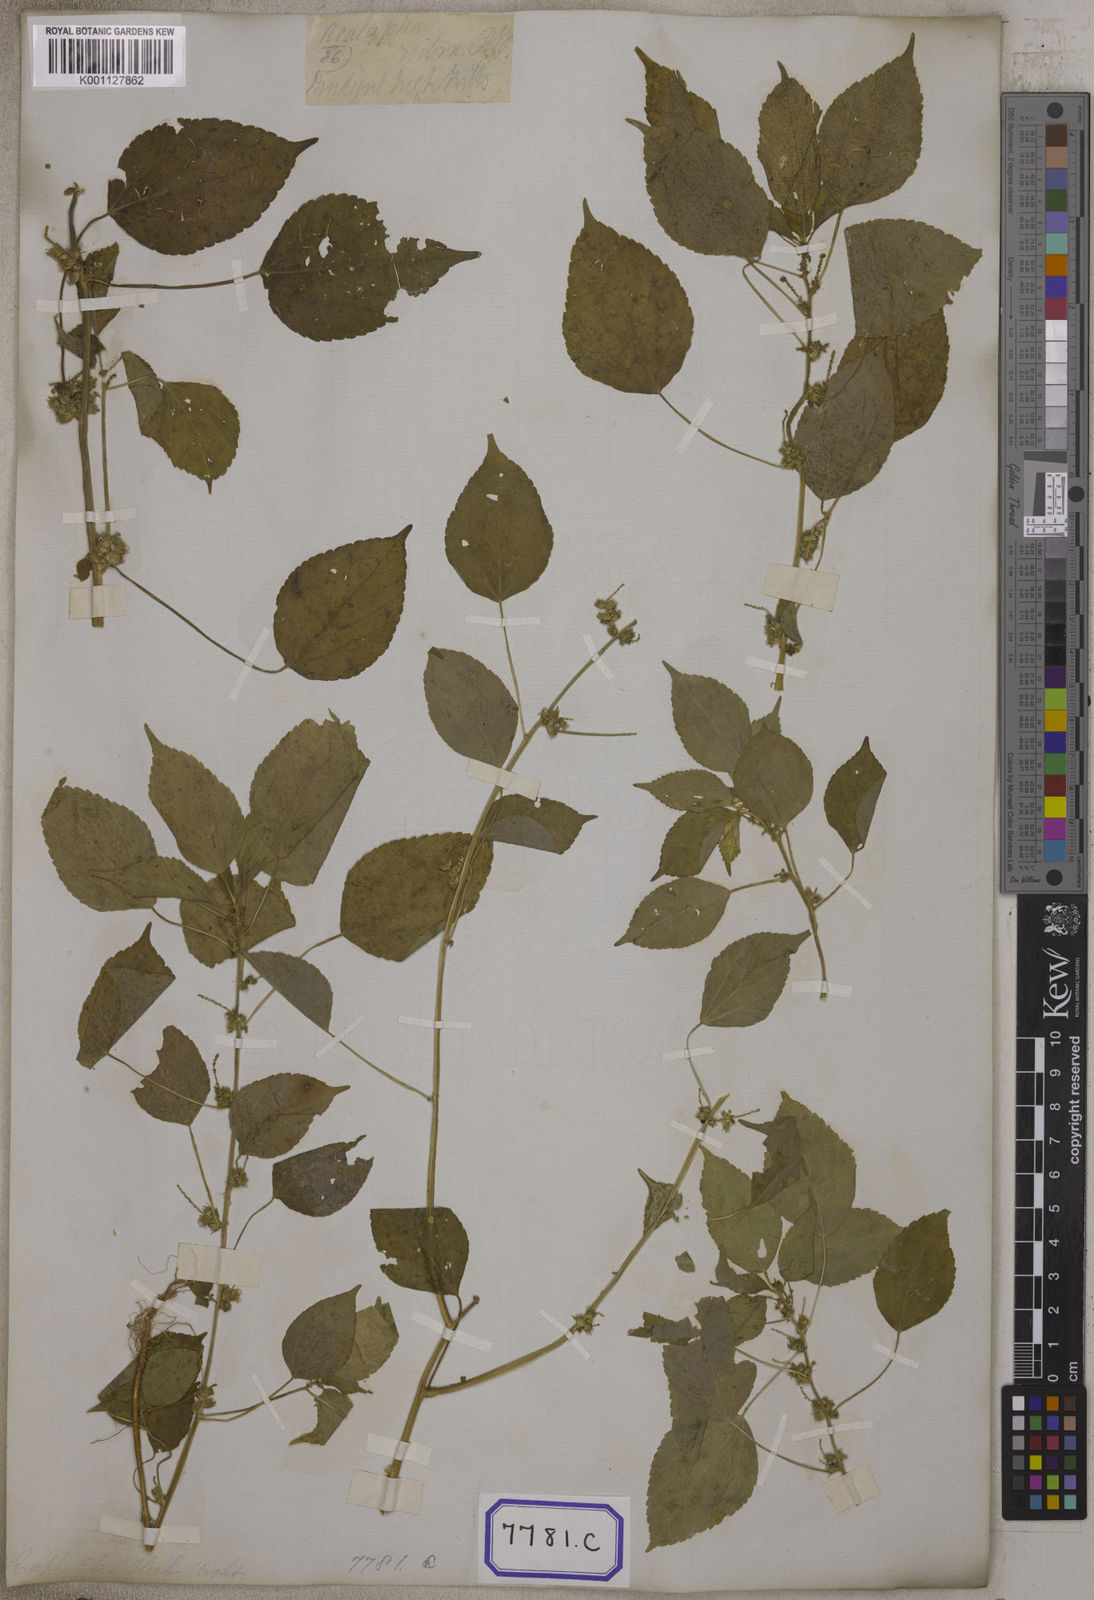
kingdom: Plantae
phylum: Tracheophyta
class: Magnoliopsida
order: Malpighiales
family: Euphorbiaceae
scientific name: Euphorbiaceae
